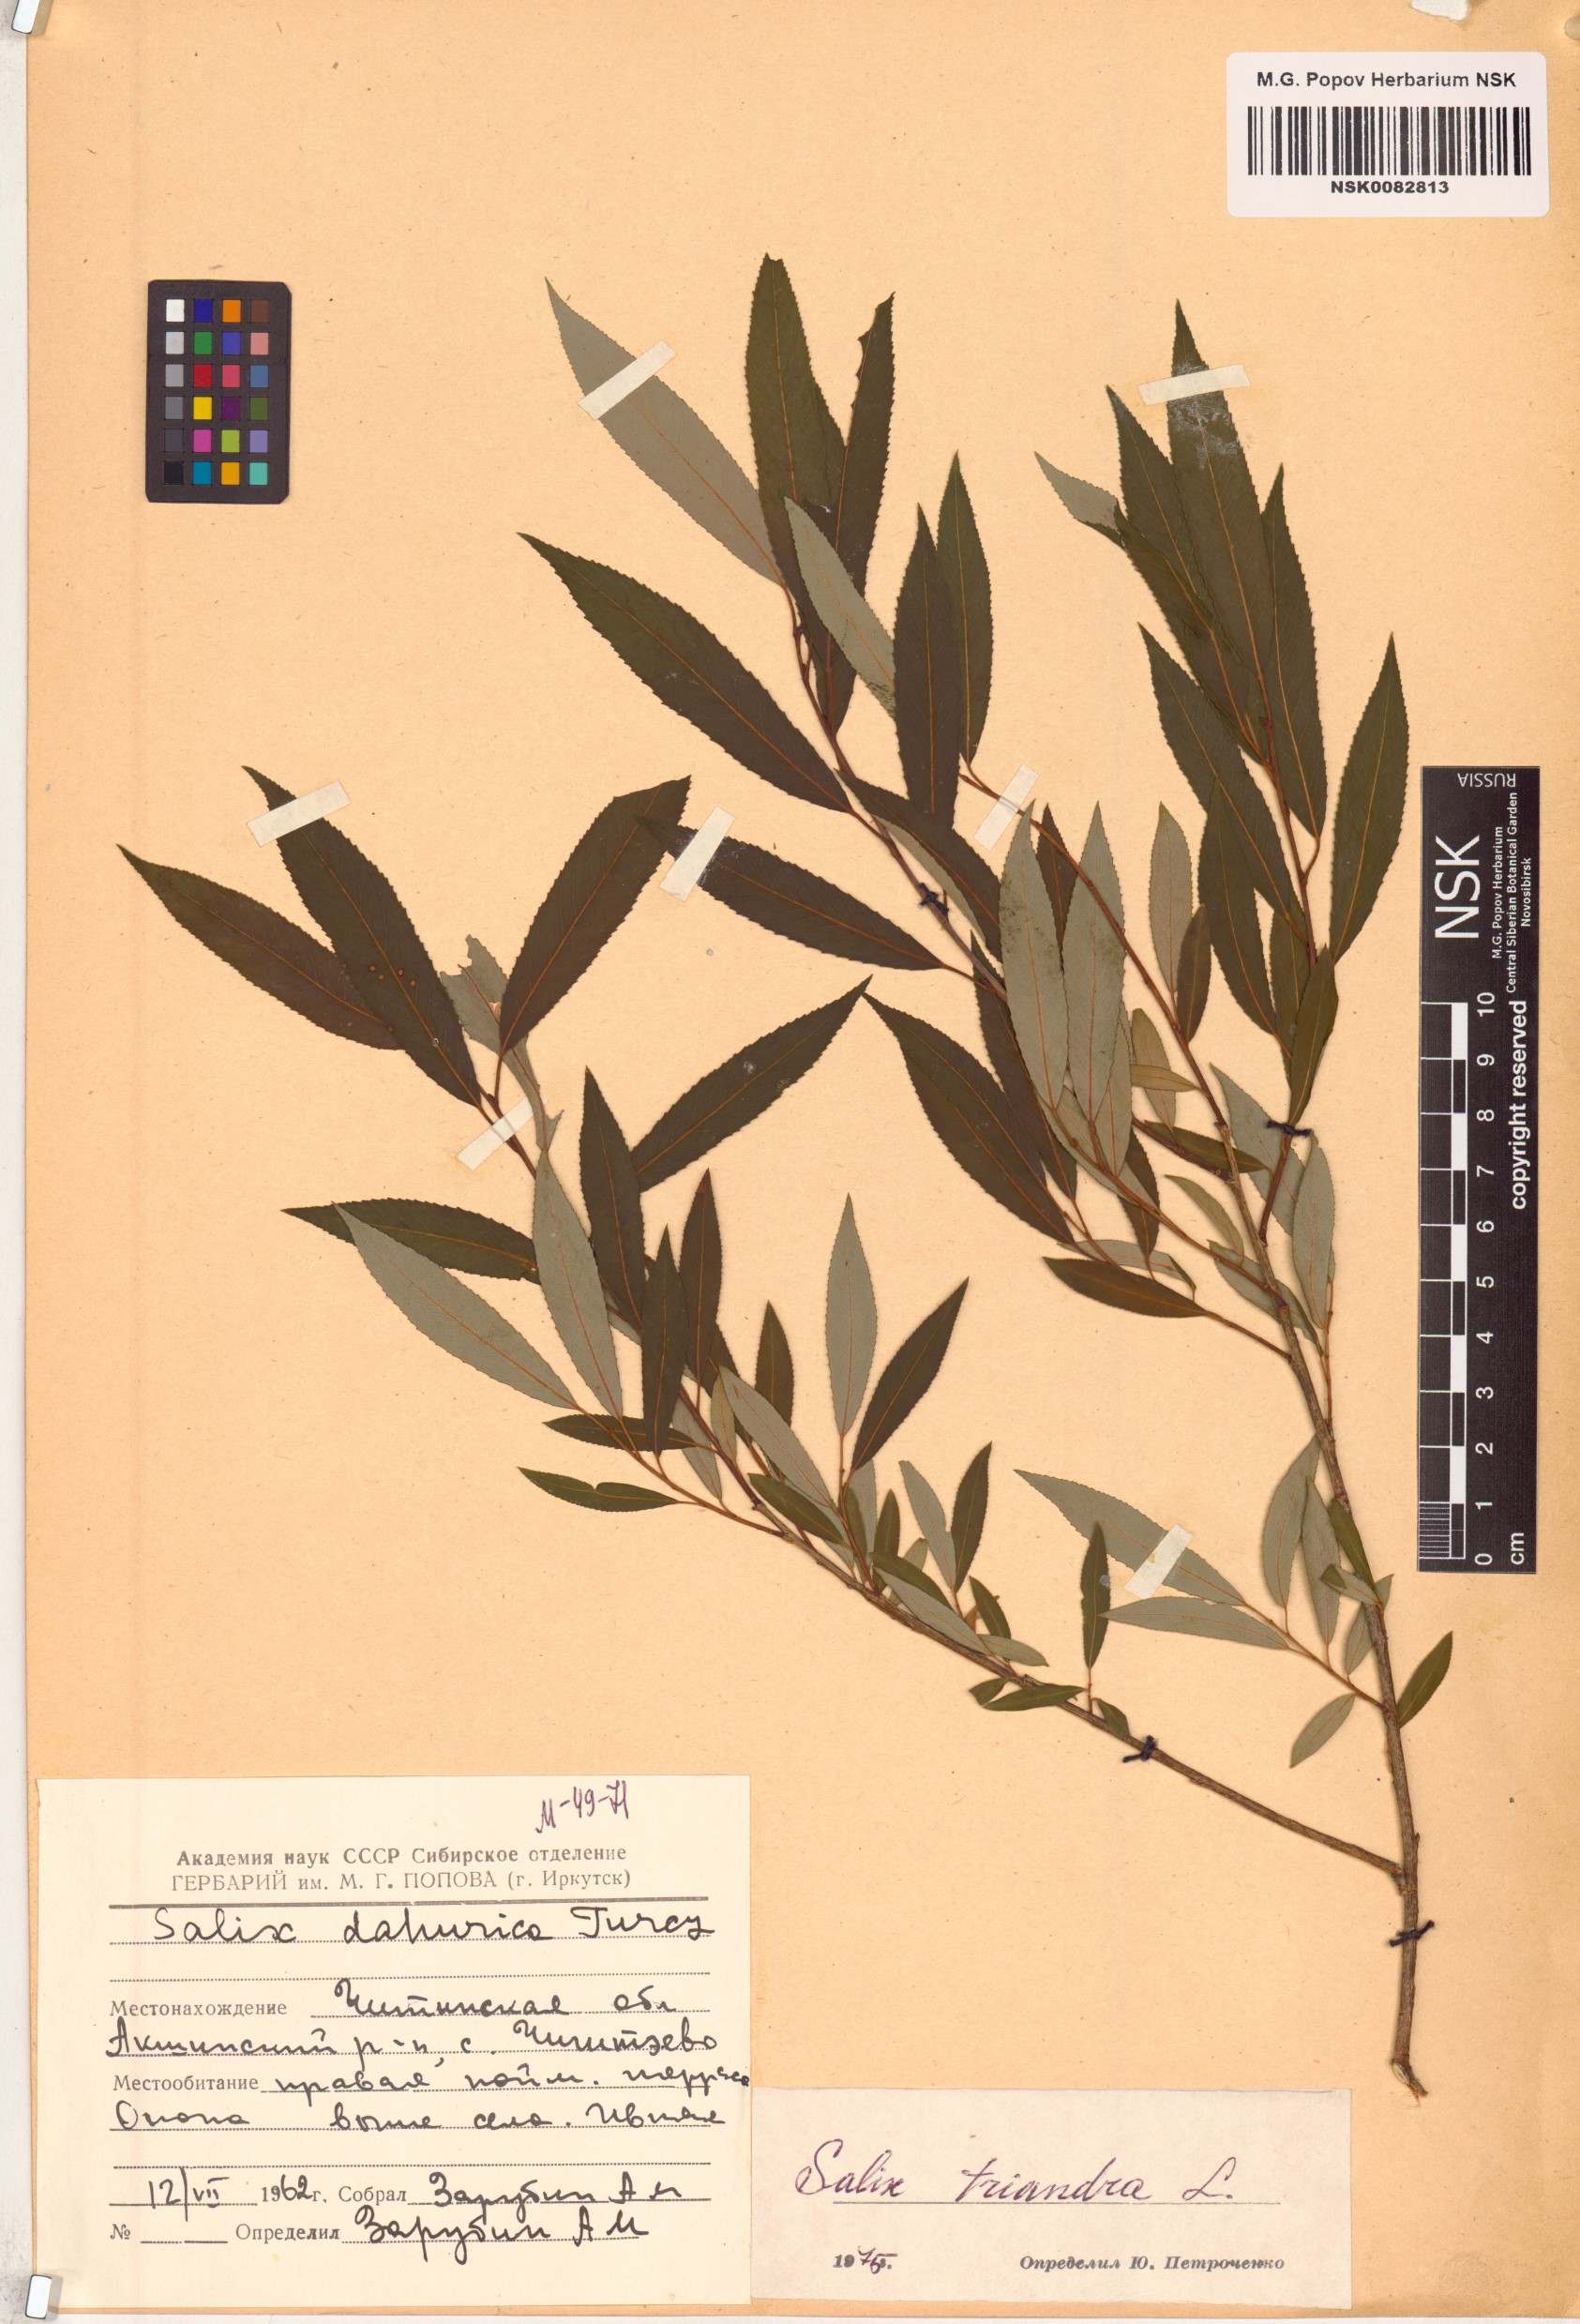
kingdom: Plantae
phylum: Tracheophyta
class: Magnoliopsida
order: Malpighiales
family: Salicaceae
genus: Salix
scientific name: Salix triandra
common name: Almond willow
